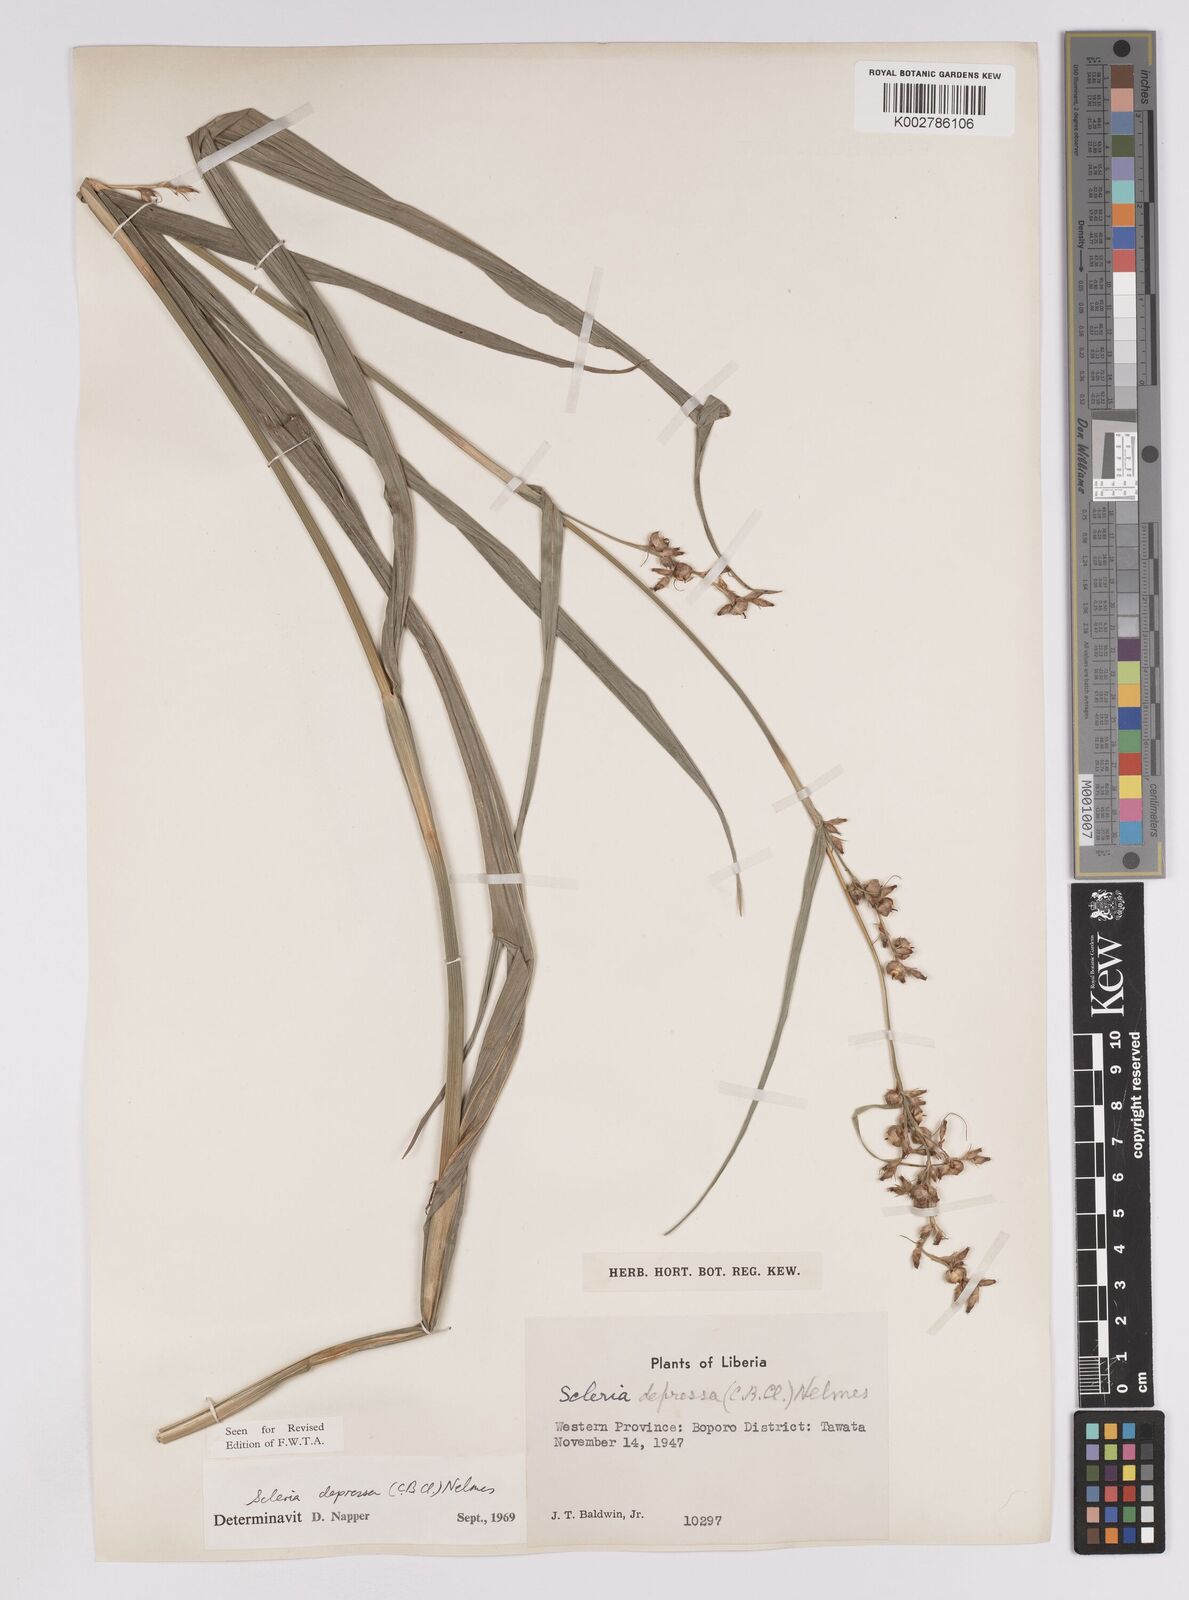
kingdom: Plantae
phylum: Tracheophyta
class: Liliopsida
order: Poales
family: Cyperaceae
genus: Scleria
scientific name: Scleria depressa
